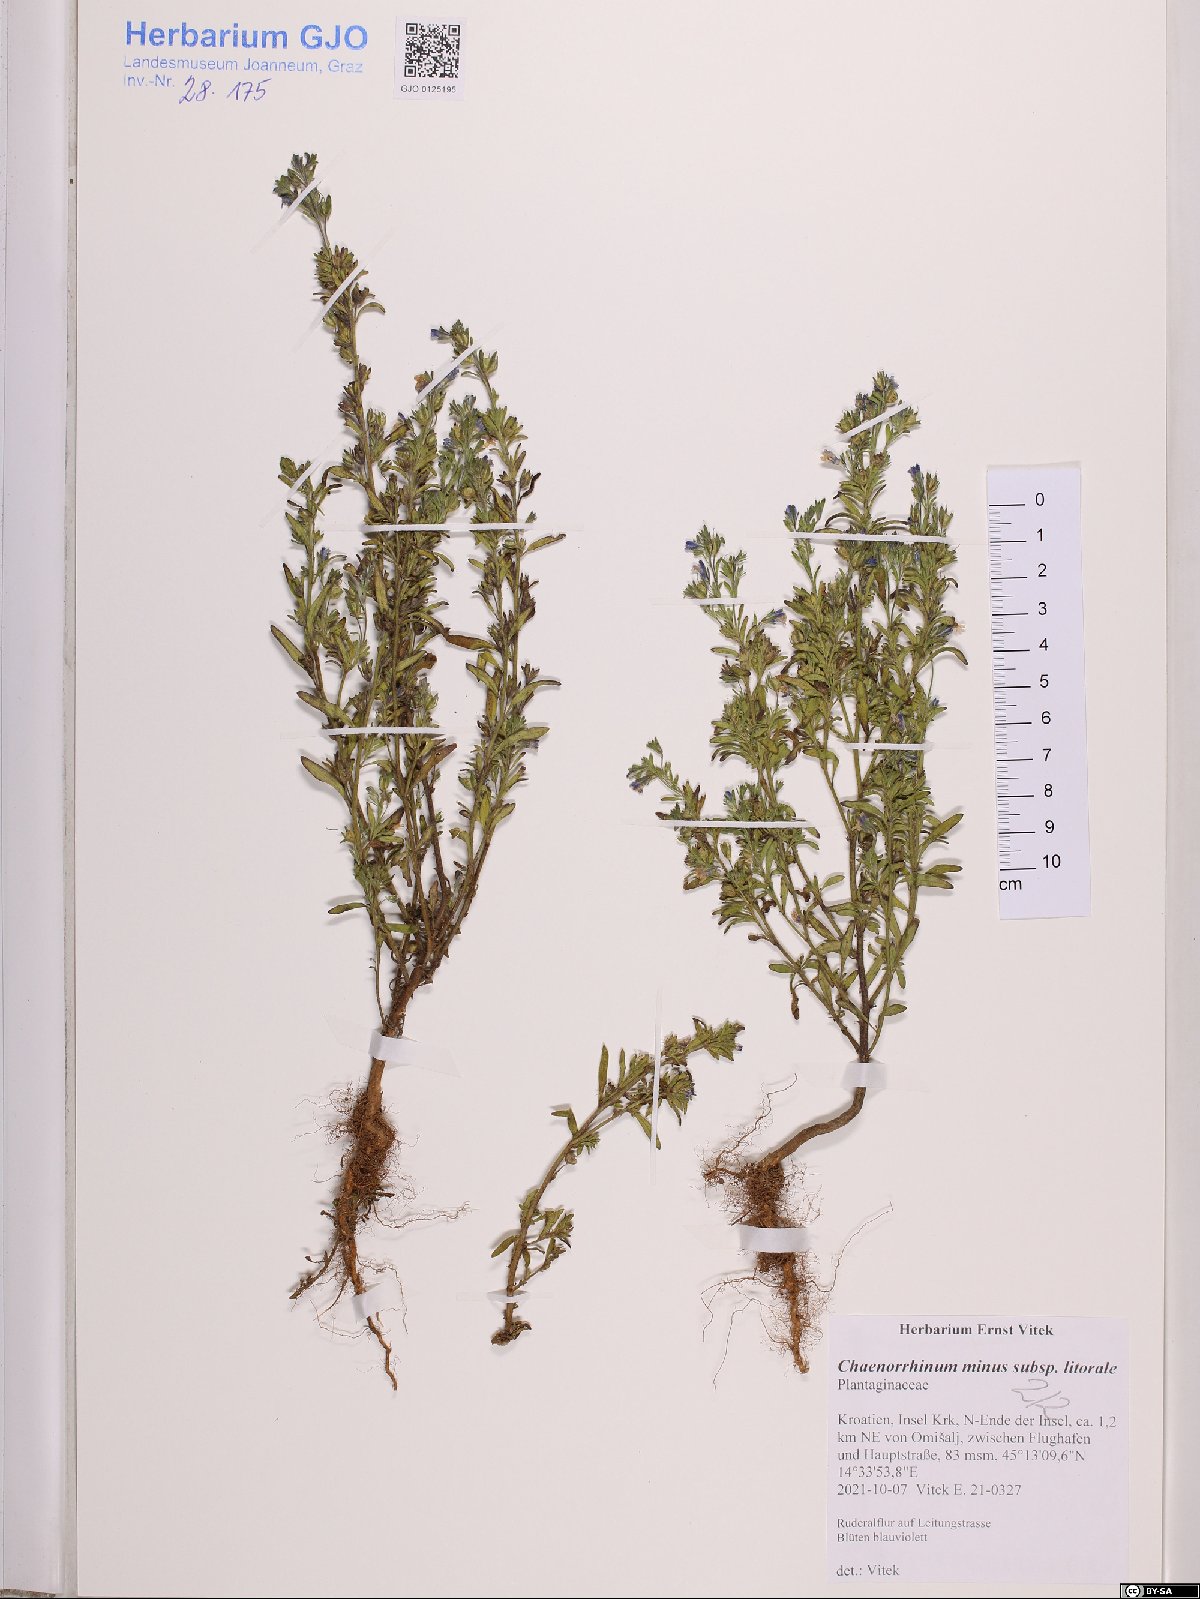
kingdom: Plantae
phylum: Tracheophyta
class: Magnoliopsida
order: Lamiales
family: Plantaginaceae
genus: Chaenorhinum
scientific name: Chaenorhinum litorale
